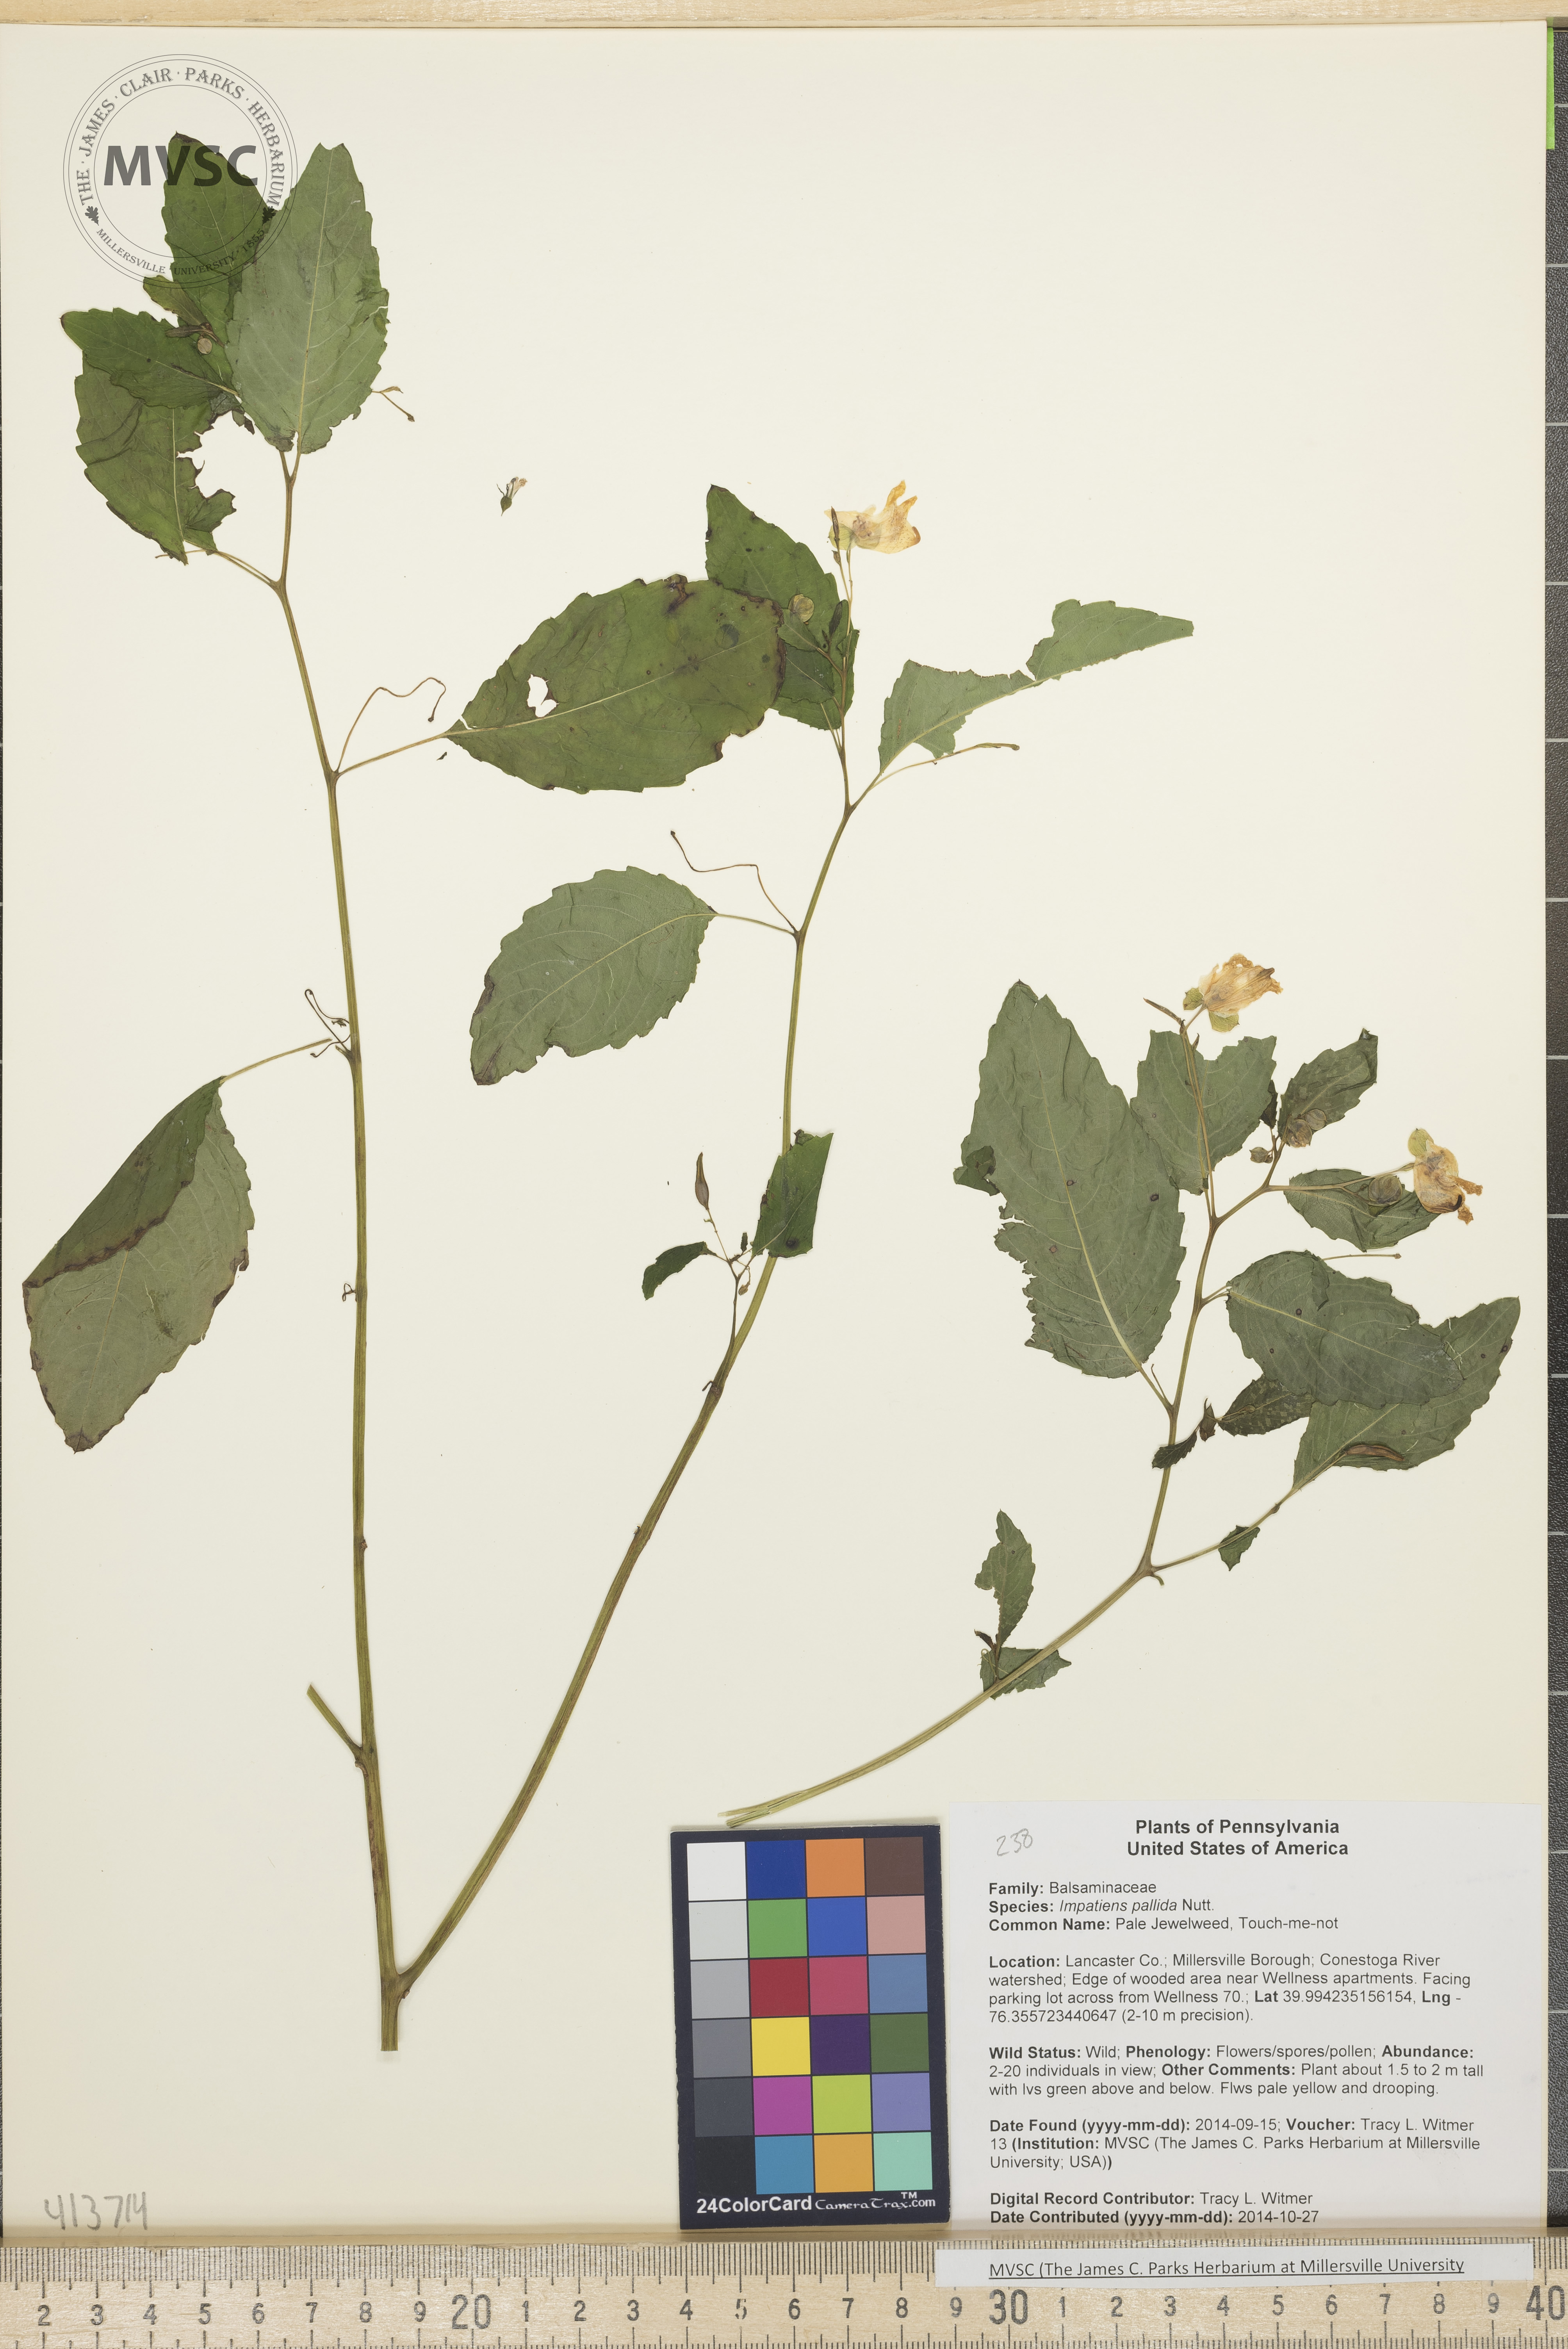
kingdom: Plantae
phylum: Tracheophyta
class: Magnoliopsida
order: Ericales
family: Balsaminaceae
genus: Impatiens
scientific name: Impatiens pallida
